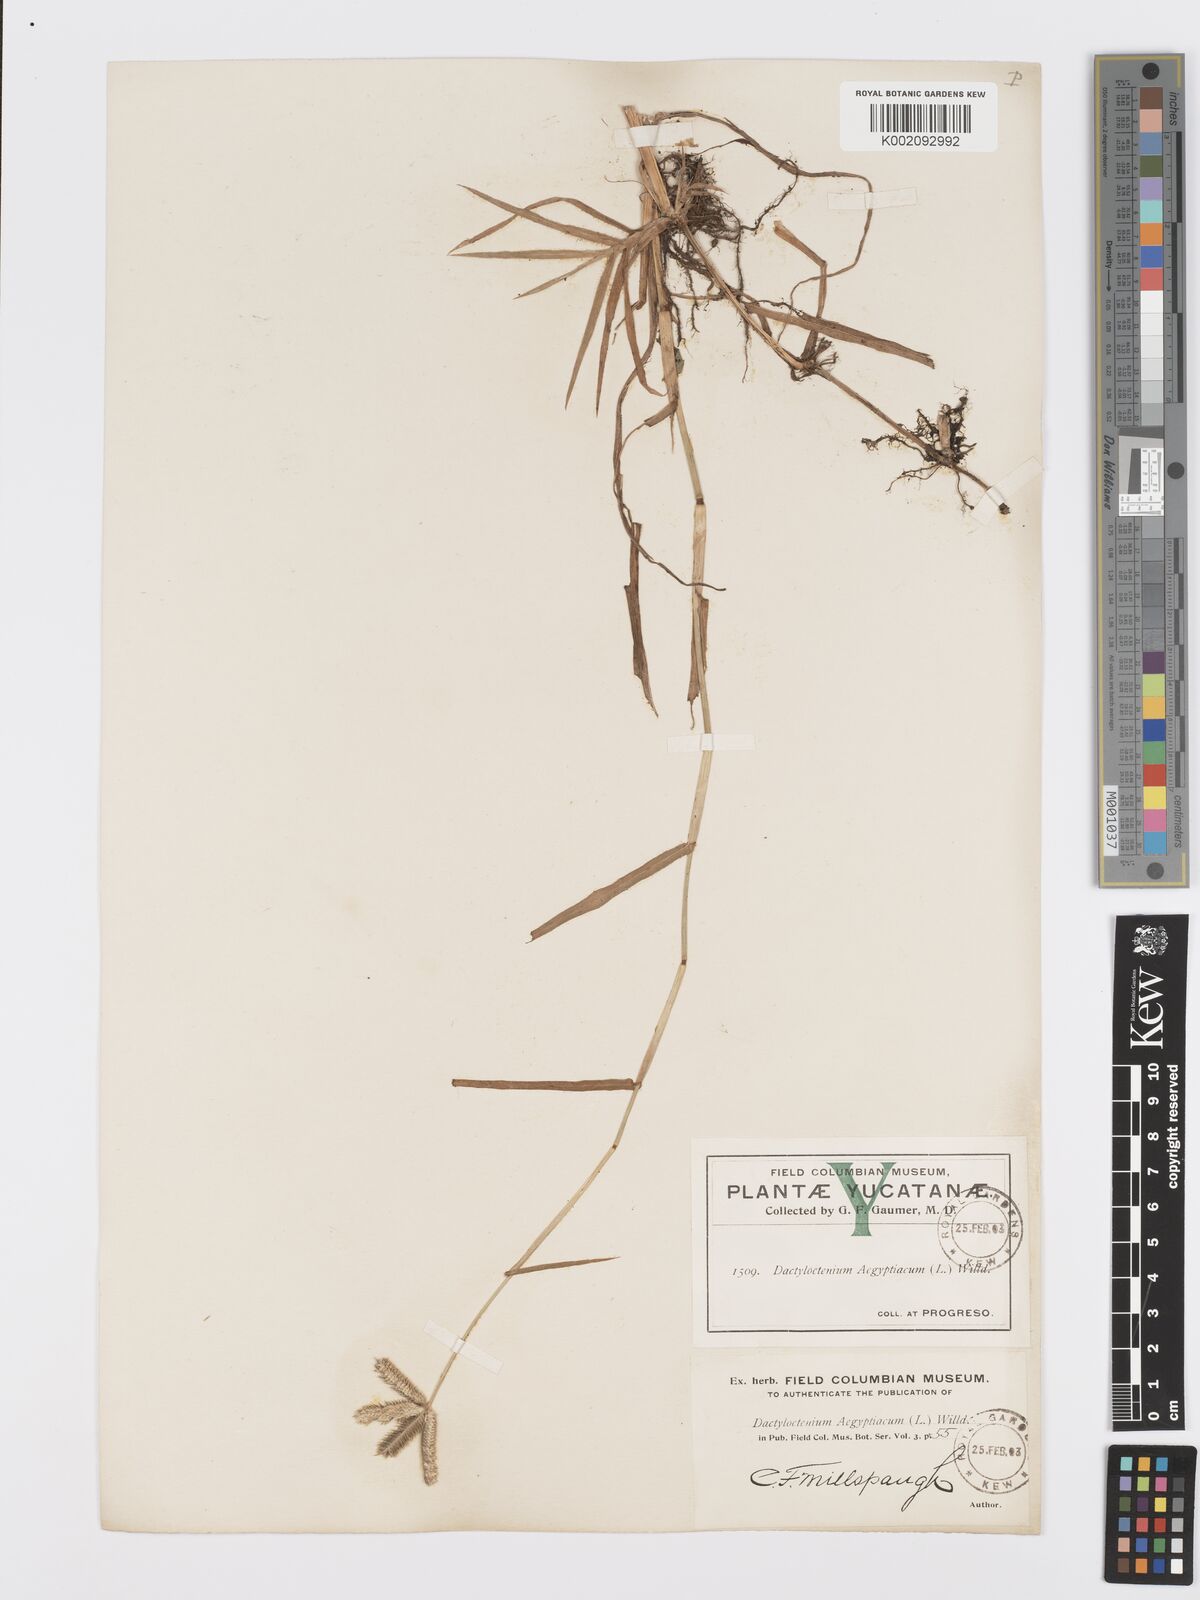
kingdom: Plantae
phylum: Tracheophyta
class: Liliopsida
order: Poales
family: Poaceae
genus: Dactyloctenium
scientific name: Dactyloctenium aegyptium
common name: Egyptian grass
